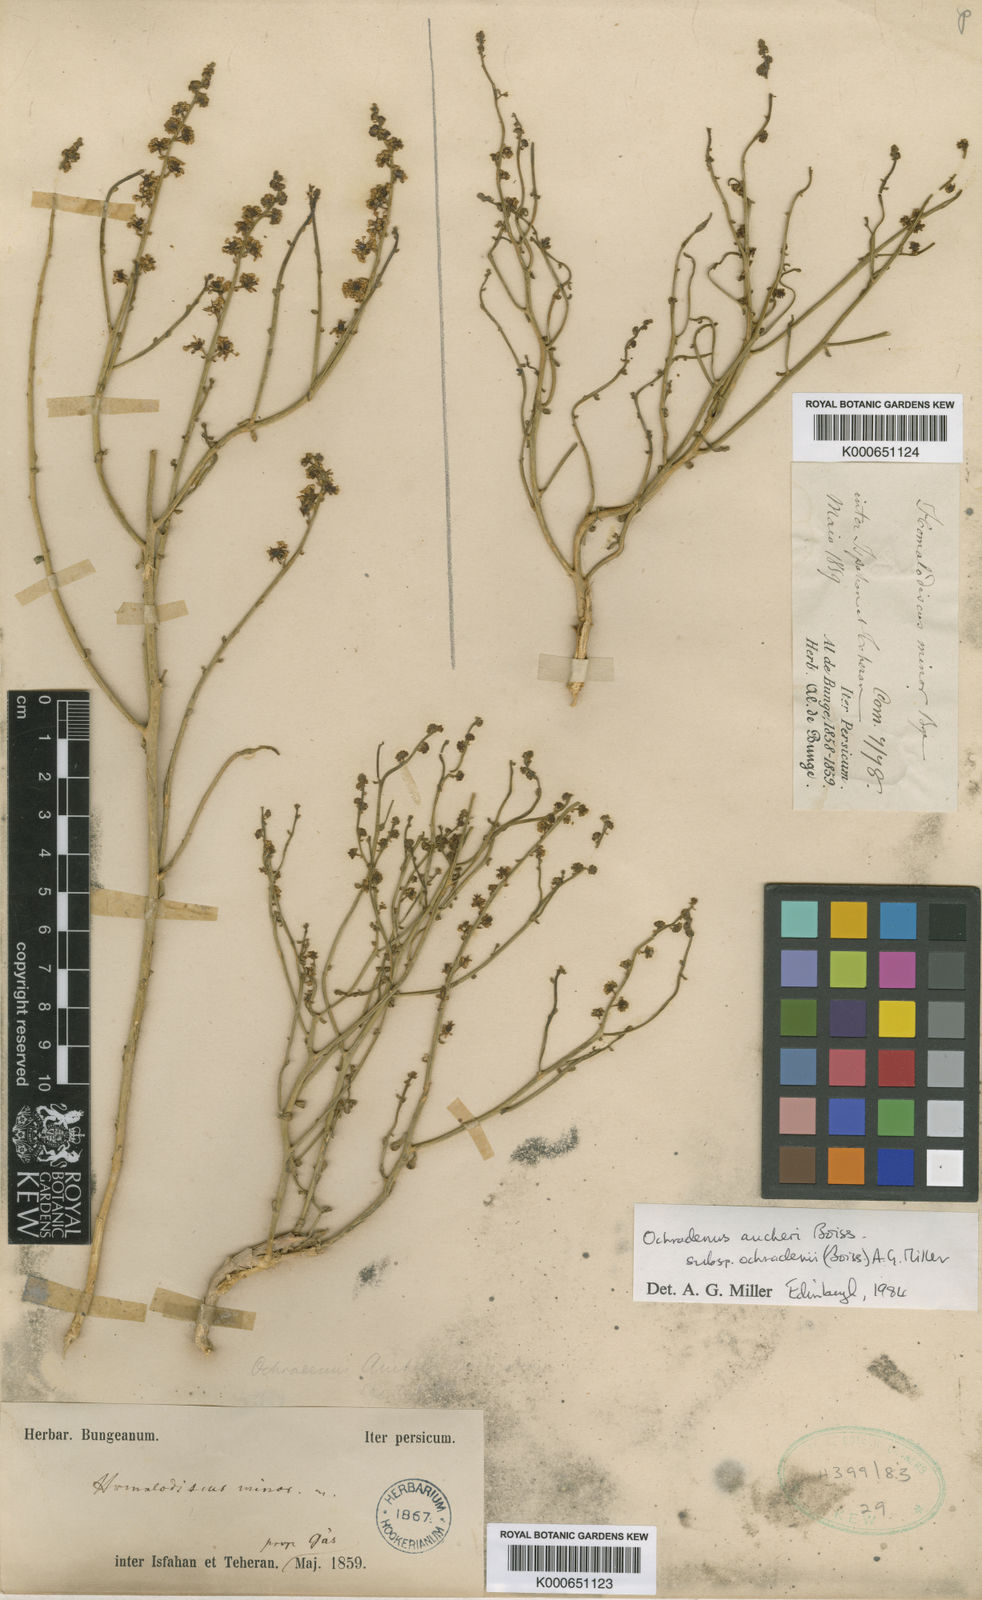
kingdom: Plantae
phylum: Tracheophyta
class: Magnoliopsida
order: Brassicales
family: Resedaceae
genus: Ochradiscus
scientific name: Ochradiscus ochradeni
